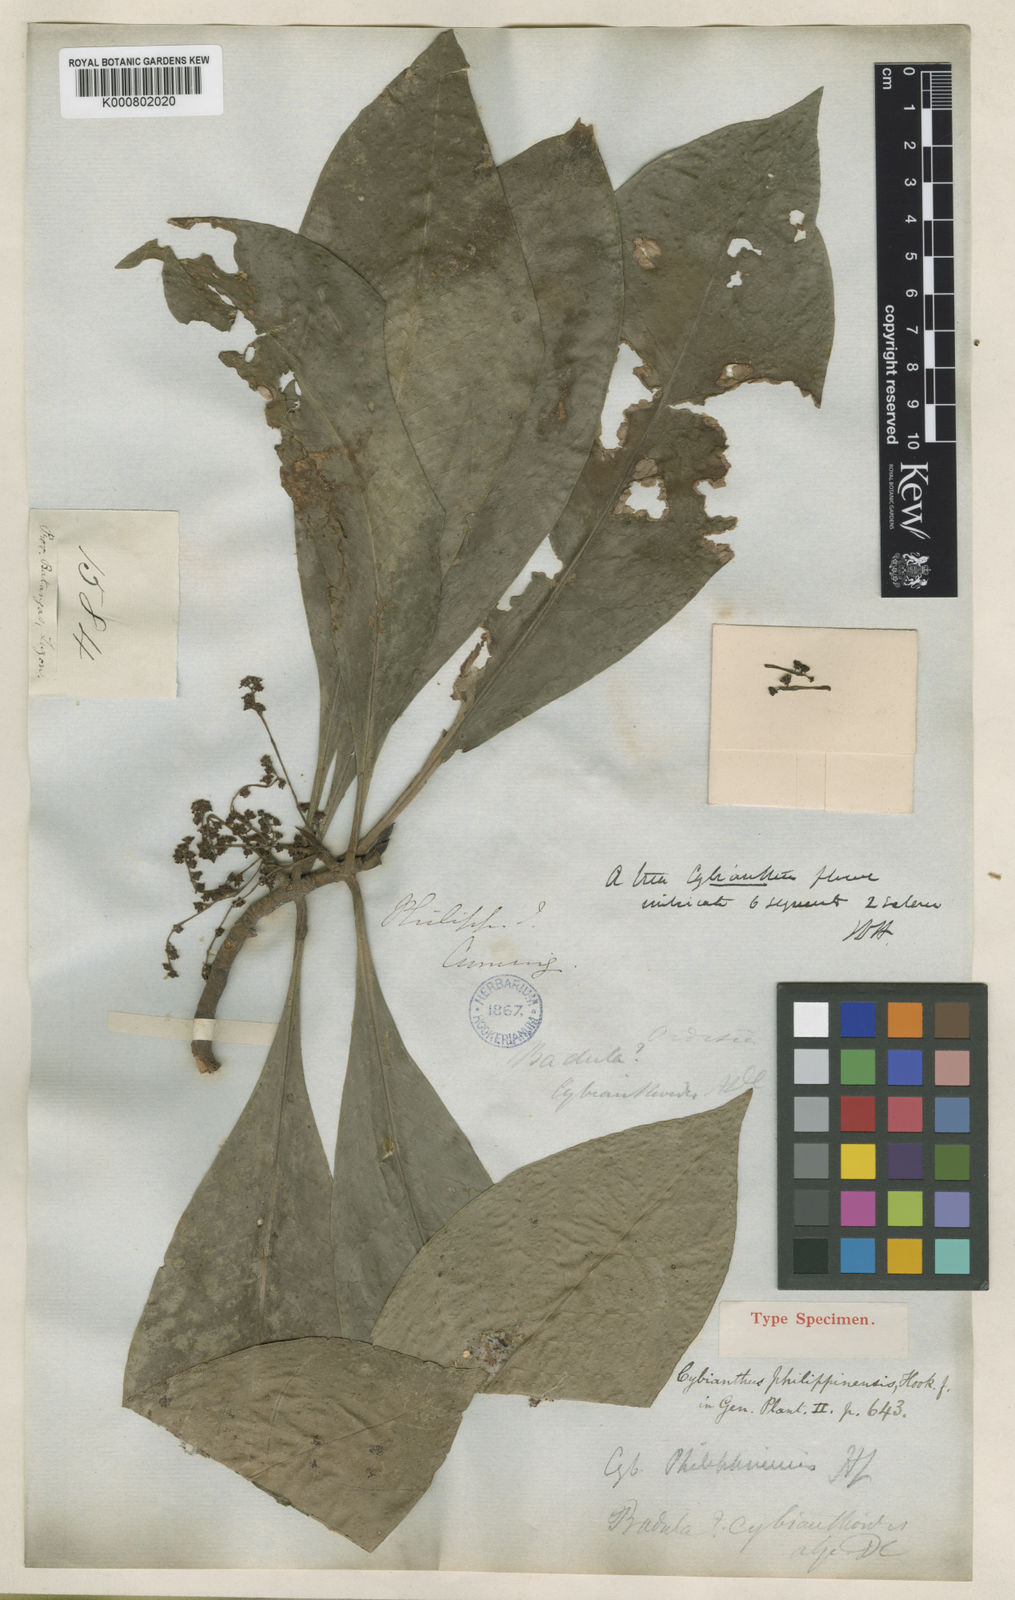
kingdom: Plantae
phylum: Tracheophyta
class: Magnoliopsida
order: Ericales
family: Primulaceae
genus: Discocalyx
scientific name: Discocalyx cybianthoides
